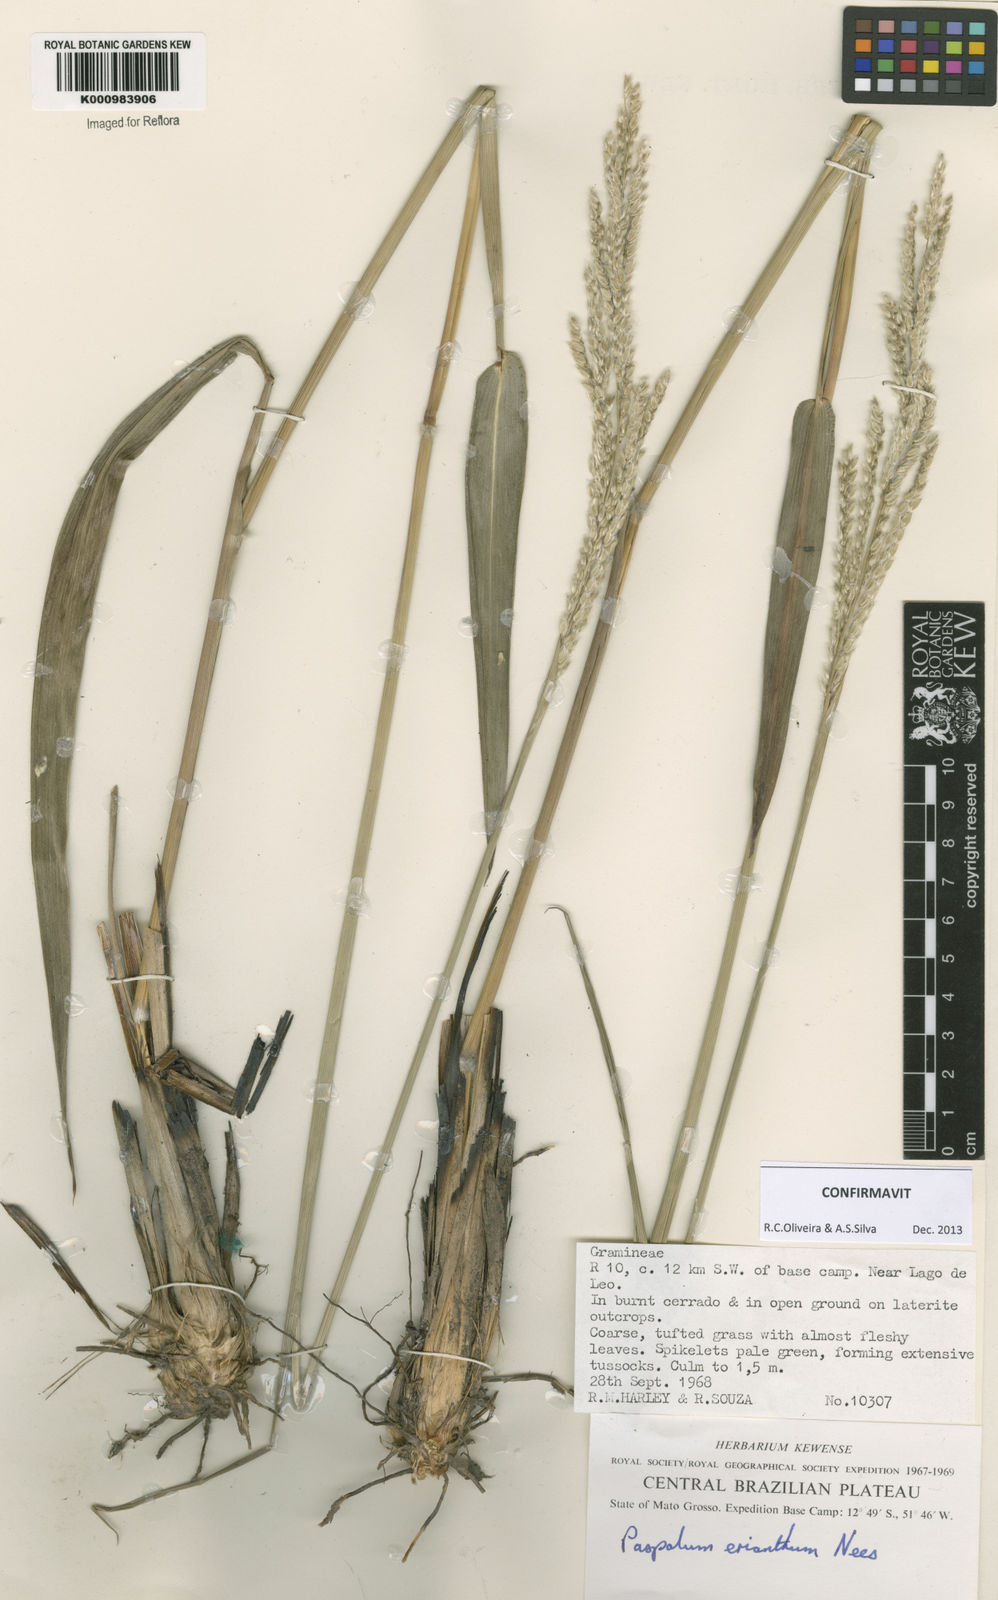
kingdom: Plantae
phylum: Tracheophyta
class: Liliopsida
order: Poales
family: Poaceae
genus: Paspalum
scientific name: Paspalum erianthum
